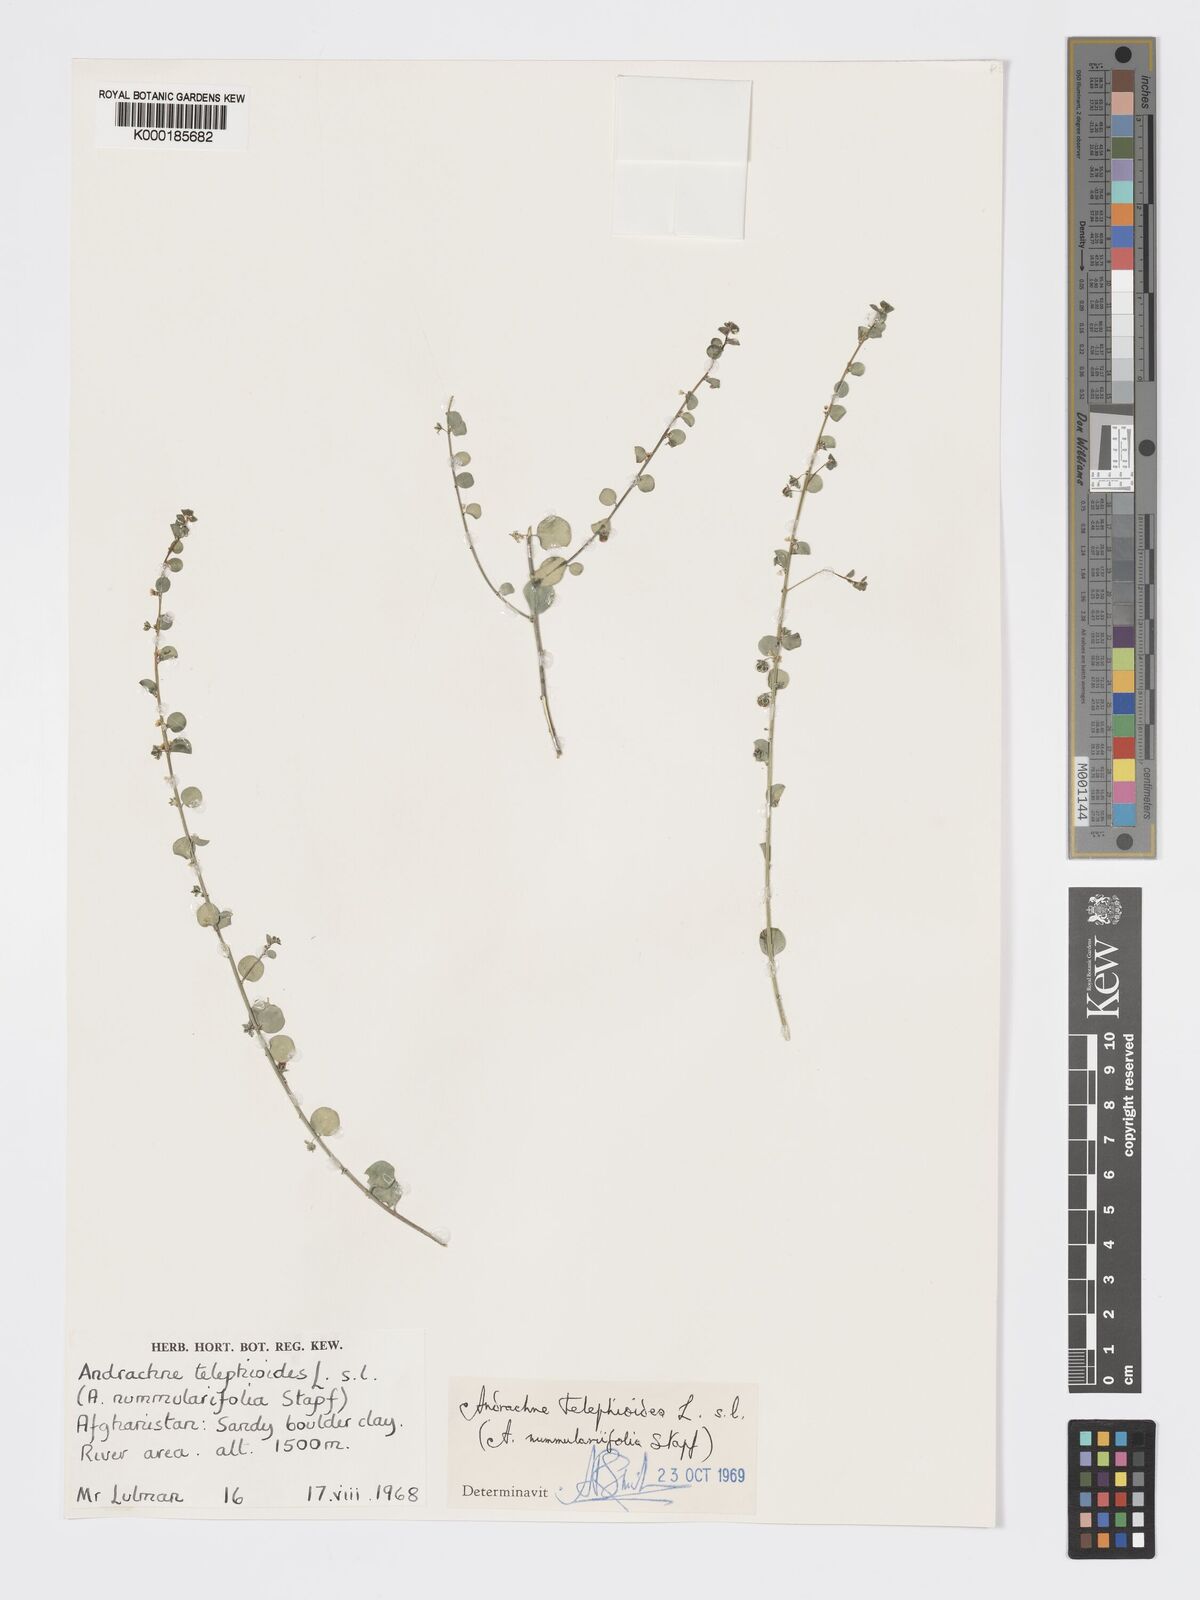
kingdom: Plantae
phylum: Tracheophyta
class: Magnoliopsida
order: Malpighiales
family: Phyllanthaceae
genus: Andrachne
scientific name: Andrachne telephioides
